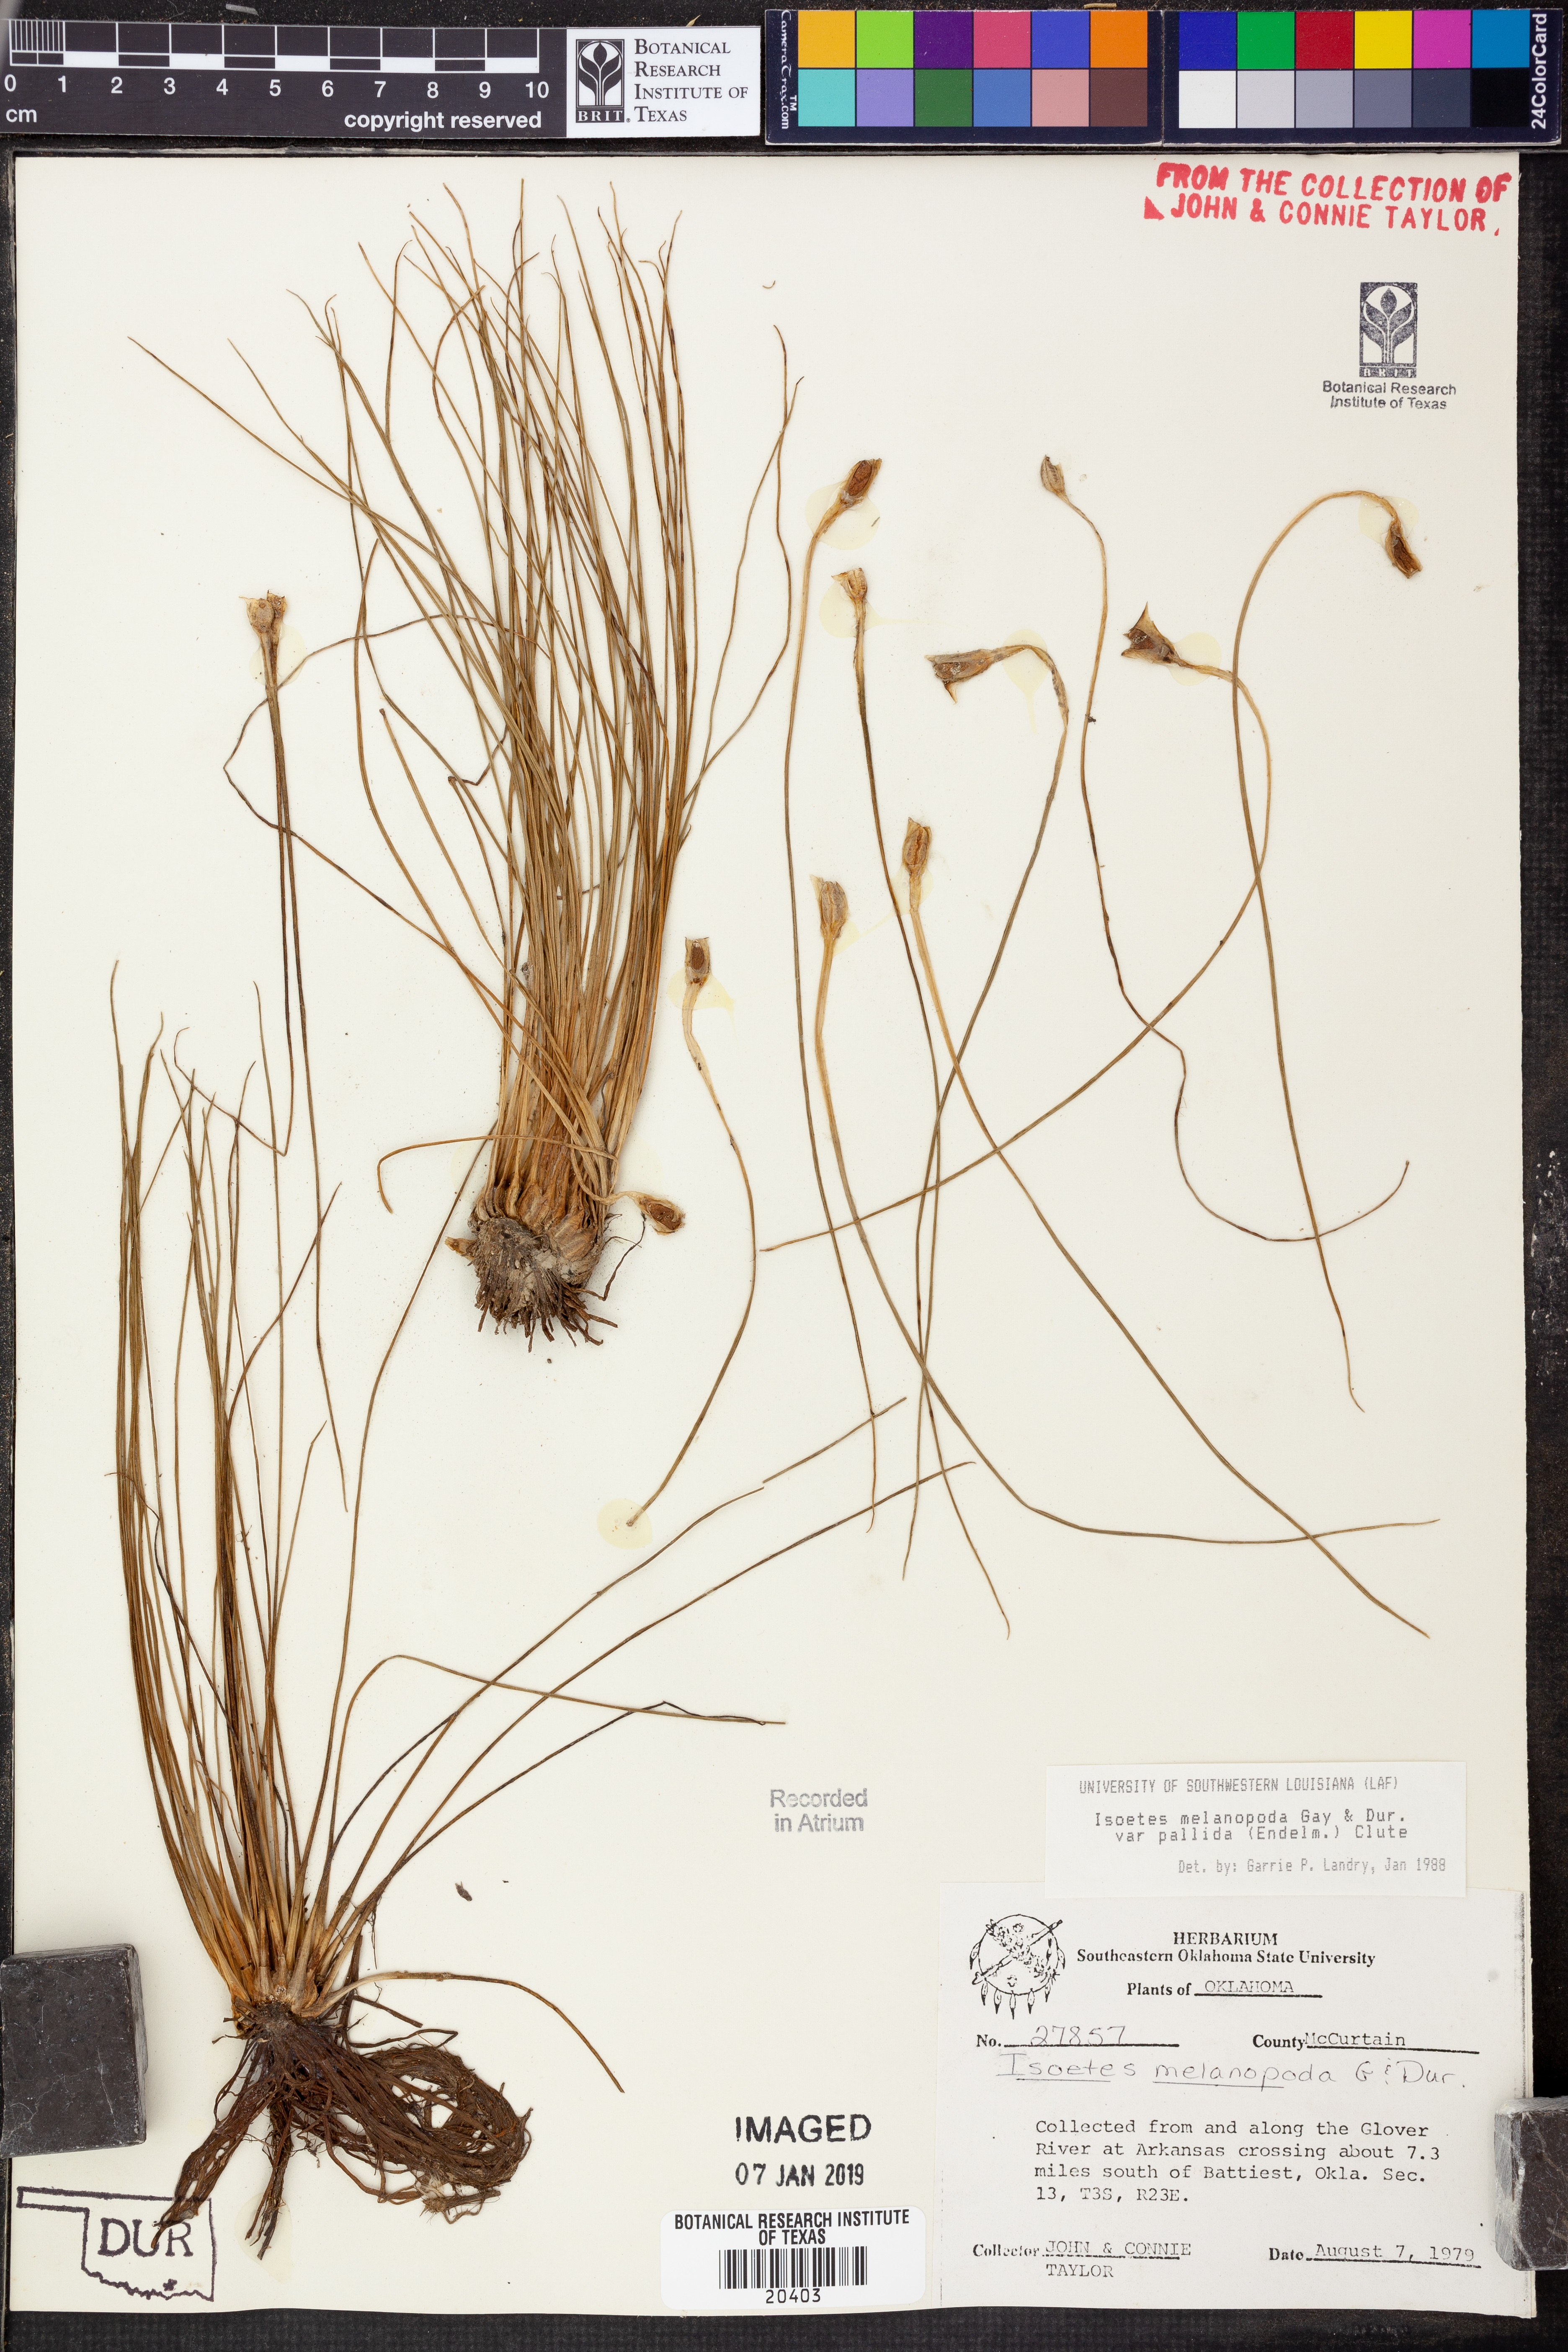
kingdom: Plantae
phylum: Tracheophyta
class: Lycopodiopsida
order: Isoetales
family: Isoetaceae
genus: Isoetes
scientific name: Isoetes melanopoda
